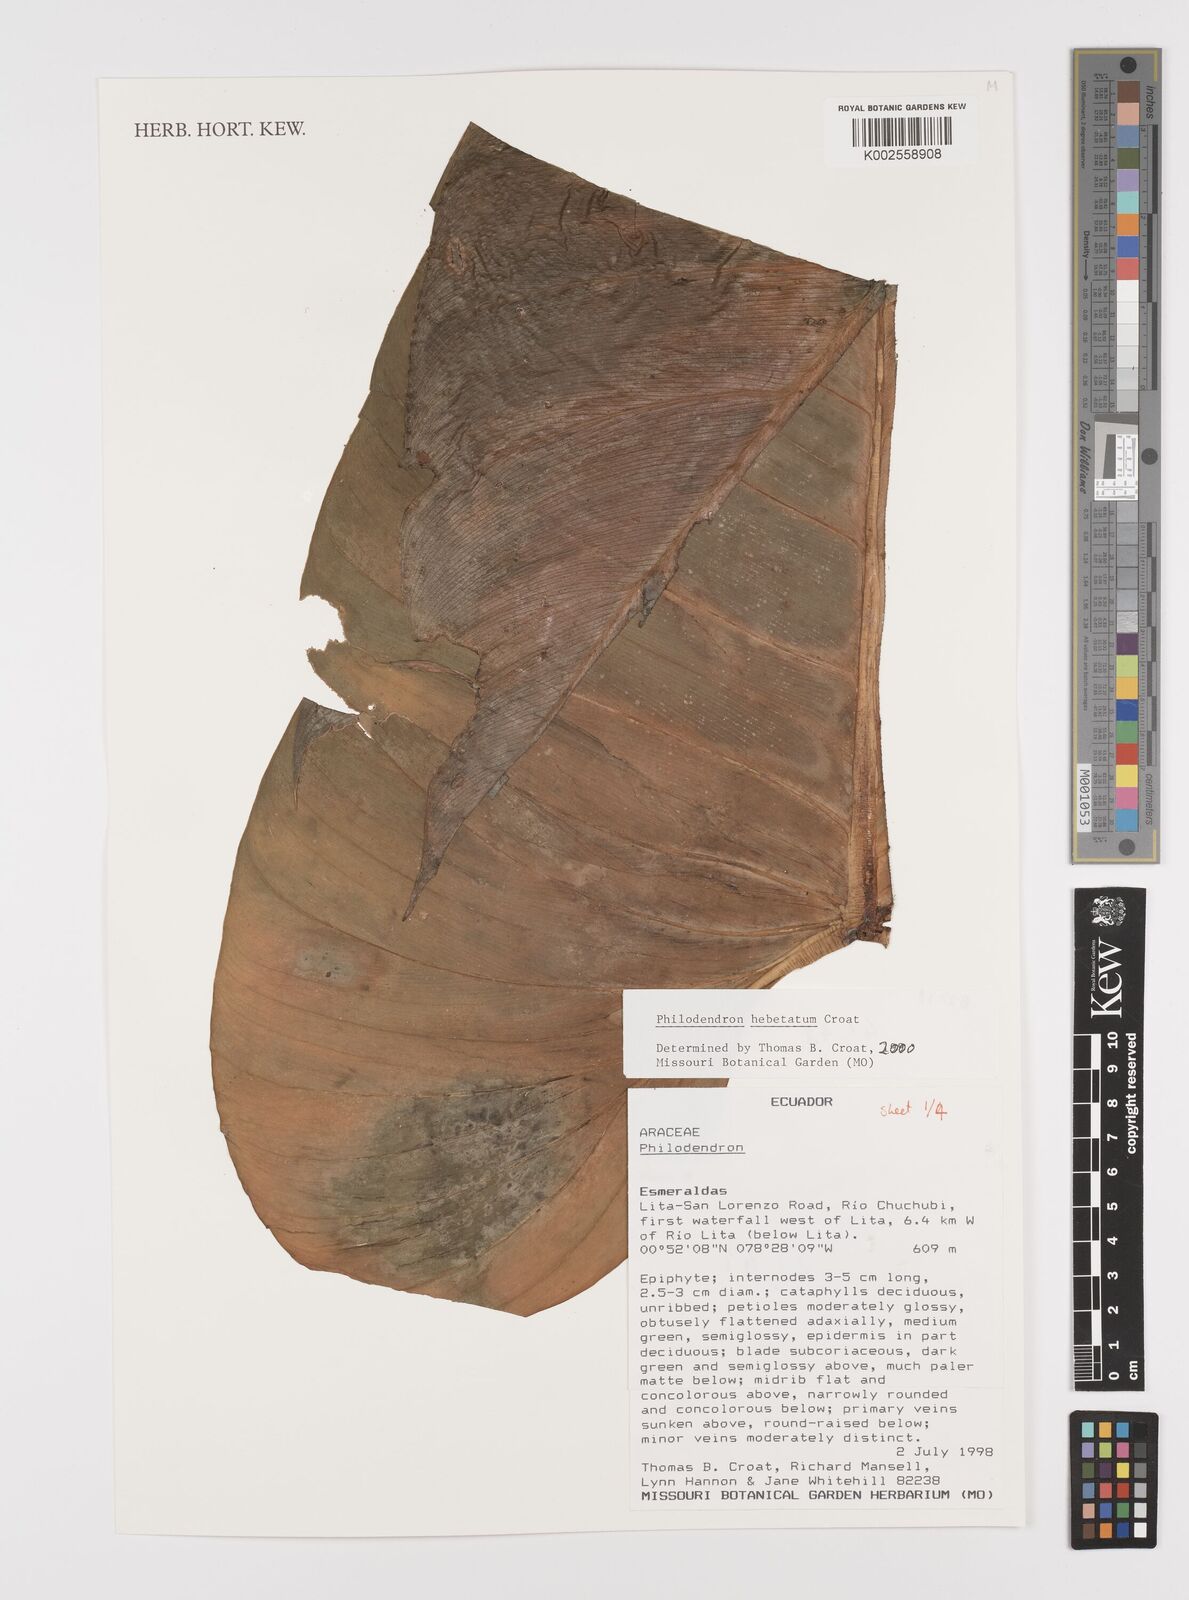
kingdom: Plantae
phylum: Tracheophyta
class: Liliopsida
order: Alismatales
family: Araceae
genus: Philodendron
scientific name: Philodendron hebetatum
